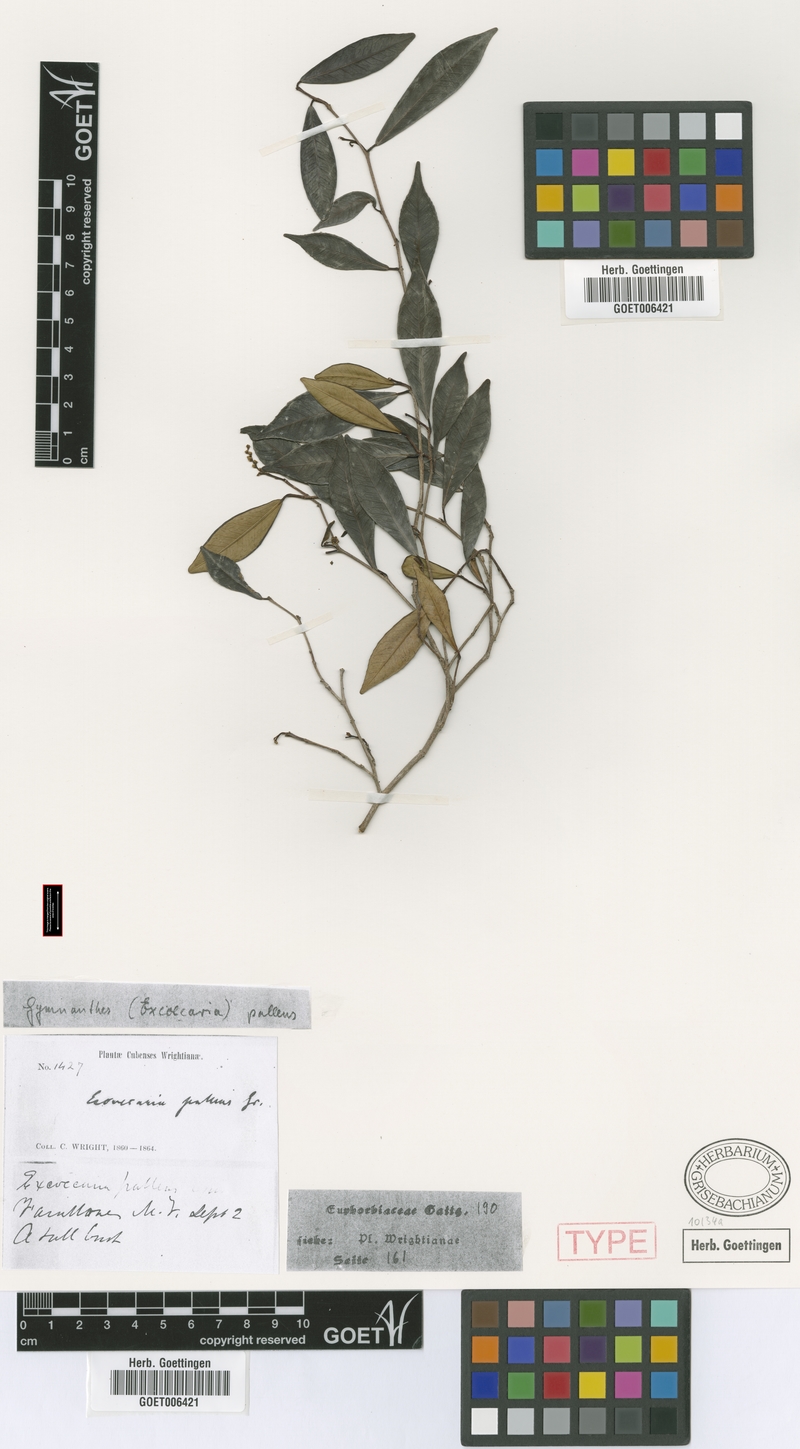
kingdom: Plantae
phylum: Tracheophyta
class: Magnoliopsida
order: Malpighiales
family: Euphorbiaceae
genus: Gymnanthes
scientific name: Gymnanthes pallens
